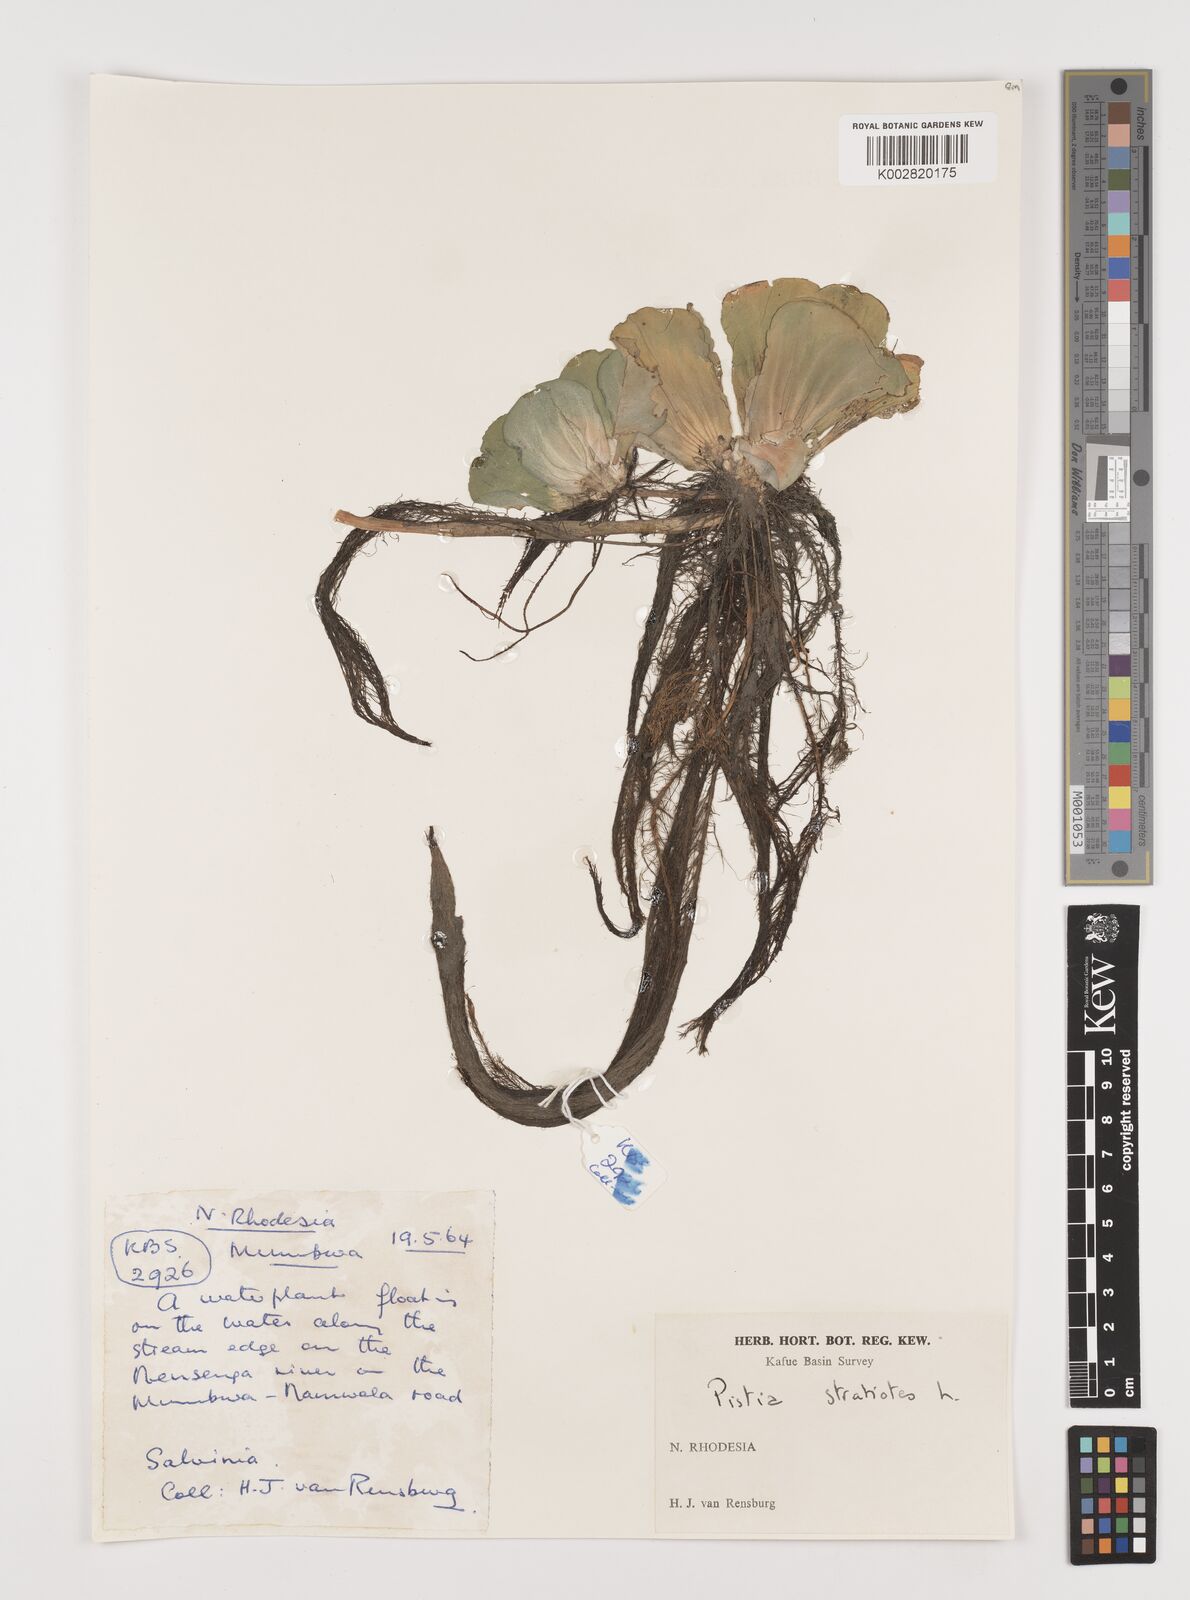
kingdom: Plantae
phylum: Tracheophyta
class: Liliopsida
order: Alismatales
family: Araceae
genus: Pistia
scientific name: Pistia stratiotes
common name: Water lettuce
